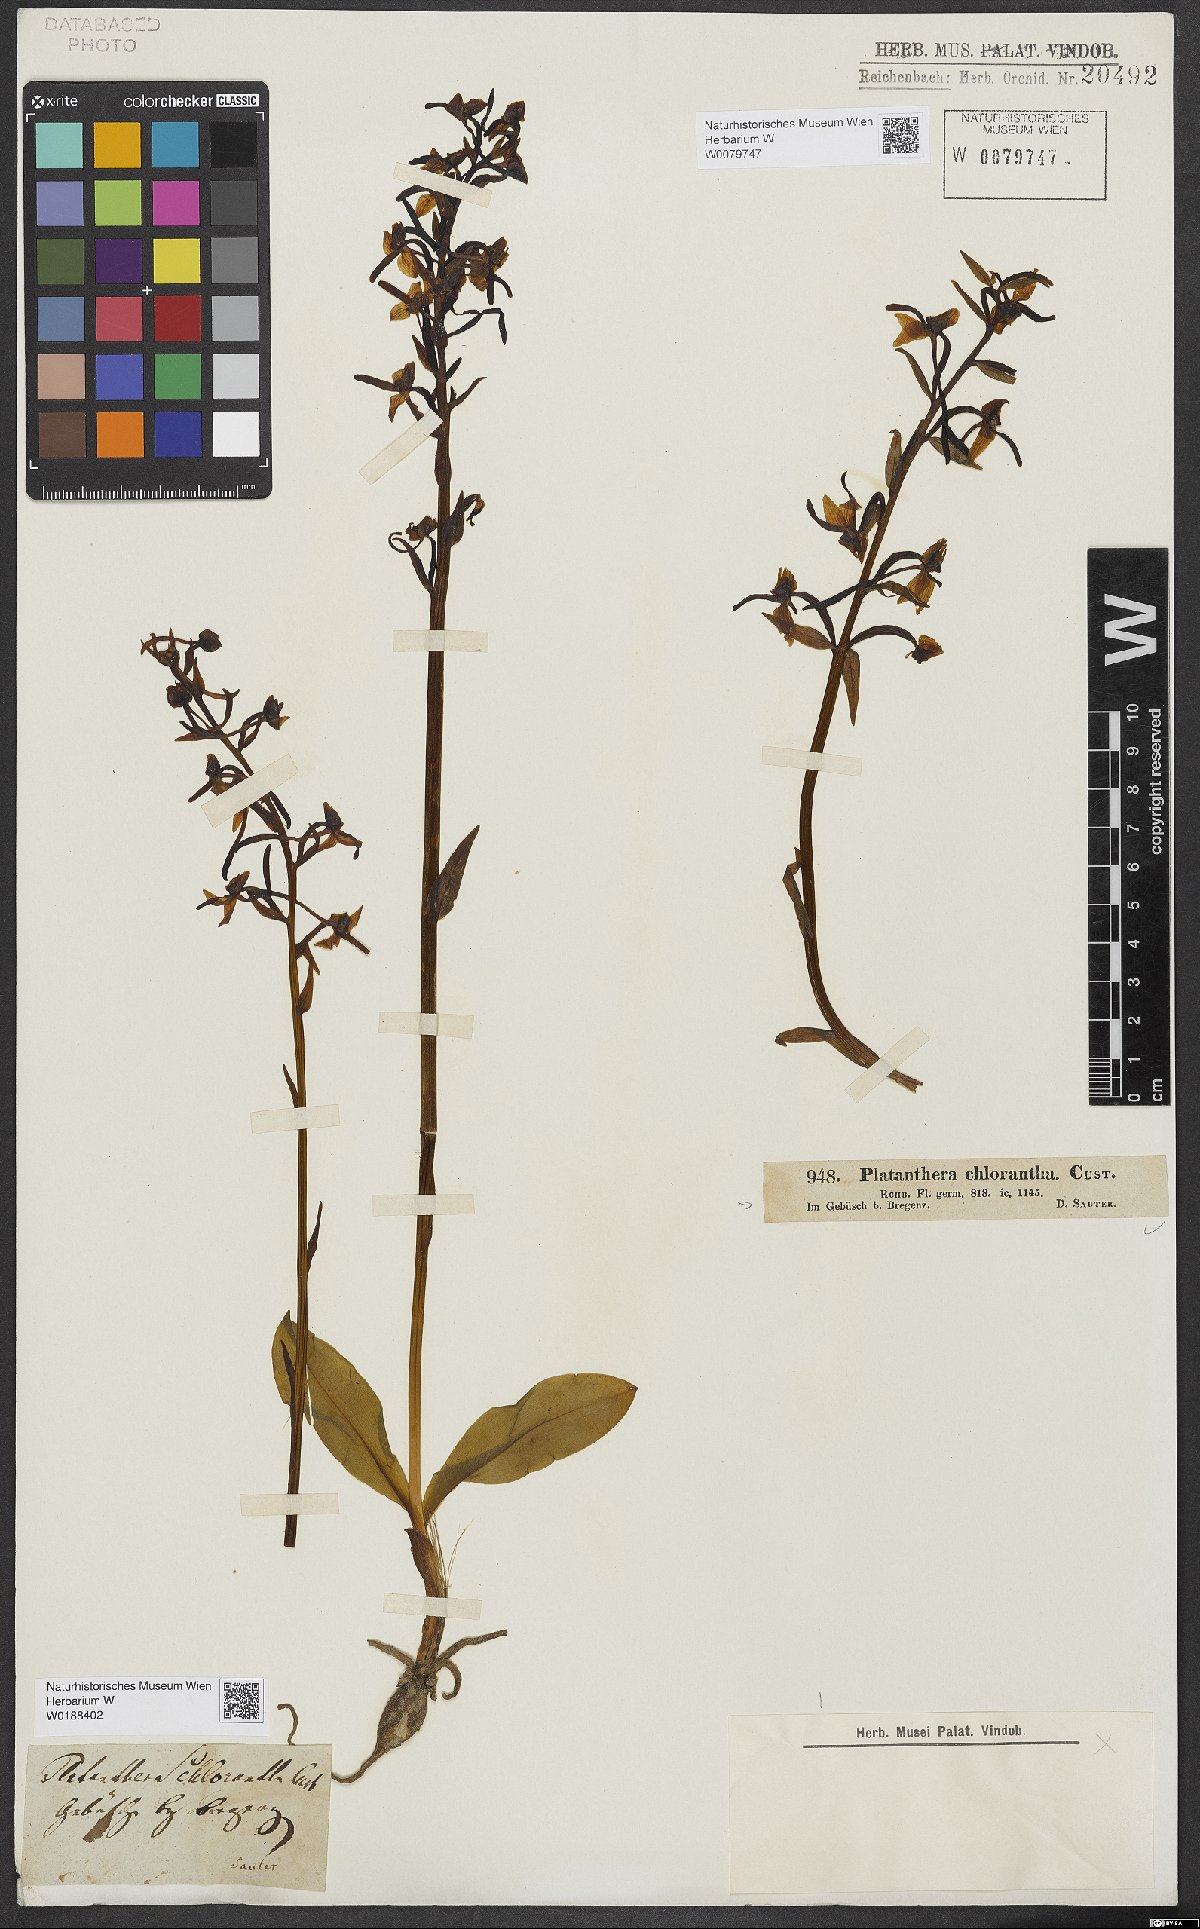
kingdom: Plantae
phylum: Tracheophyta
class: Liliopsida
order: Asparagales
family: Orchidaceae
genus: Platanthera
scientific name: Platanthera chlorantha
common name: Greater butterfly-orchid
